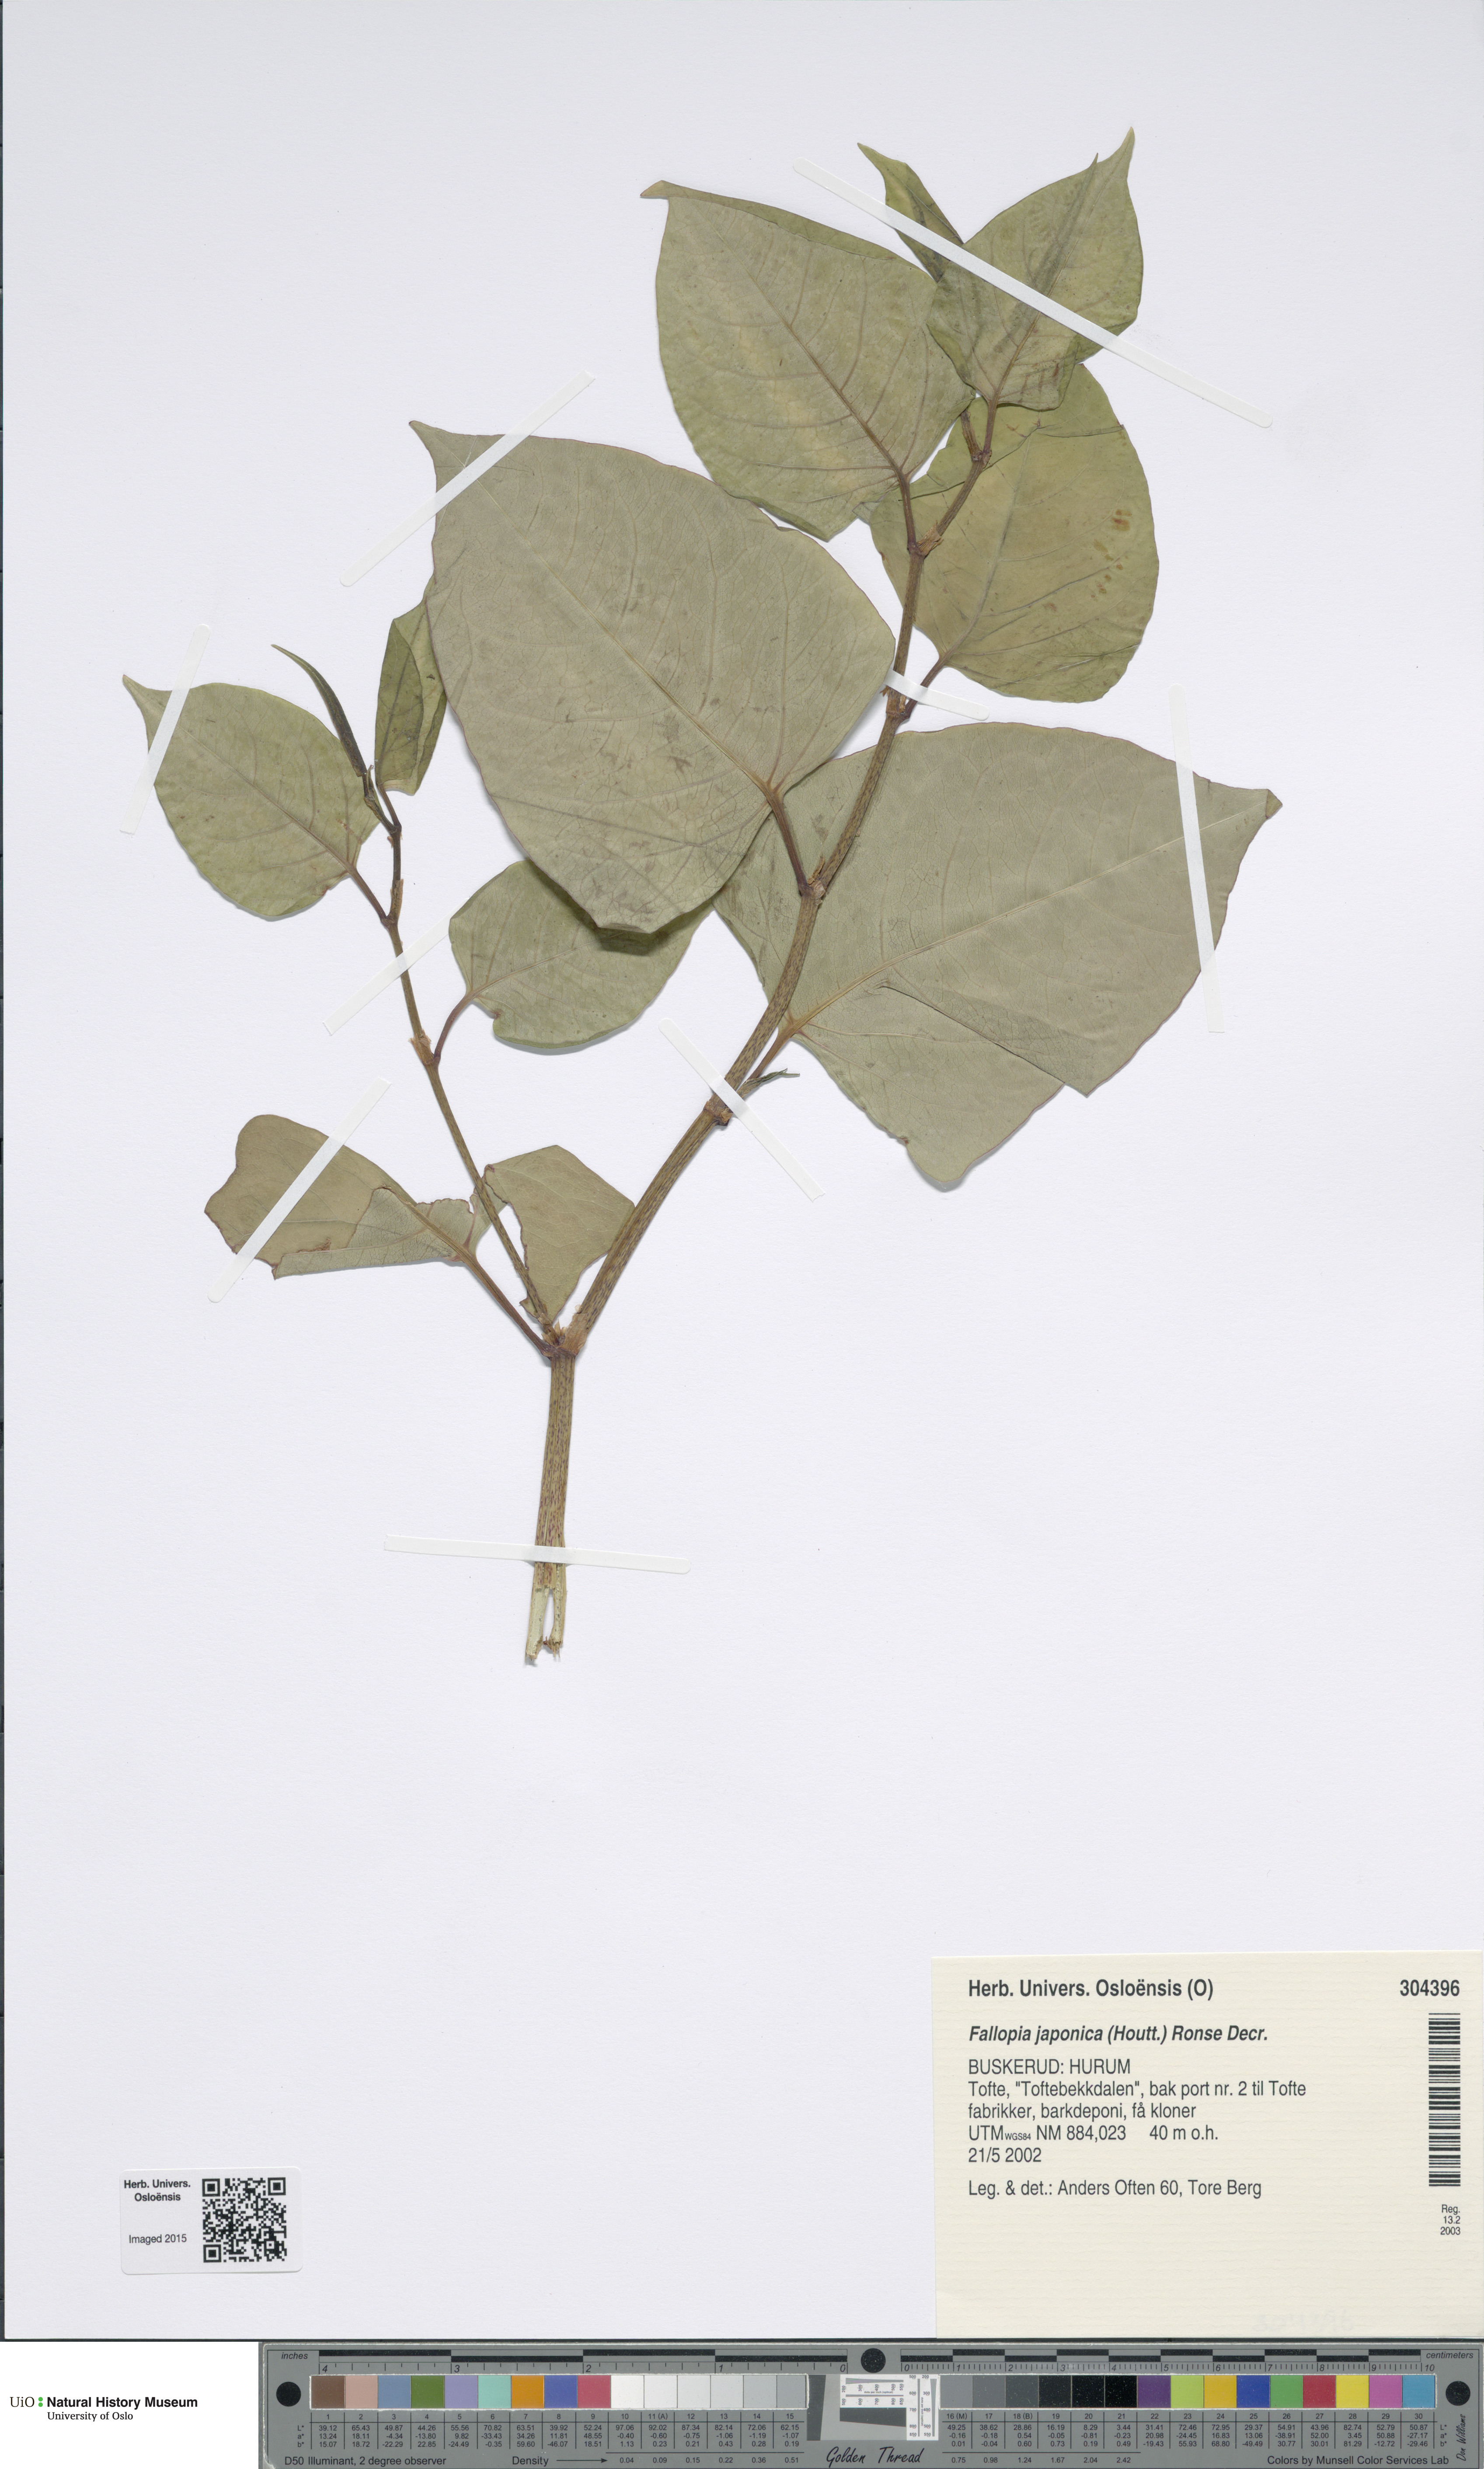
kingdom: Plantae
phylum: Tracheophyta
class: Magnoliopsida
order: Caryophyllales
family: Polygonaceae
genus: Reynoutria
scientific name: Reynoutria japonica
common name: Japanese knotweed
